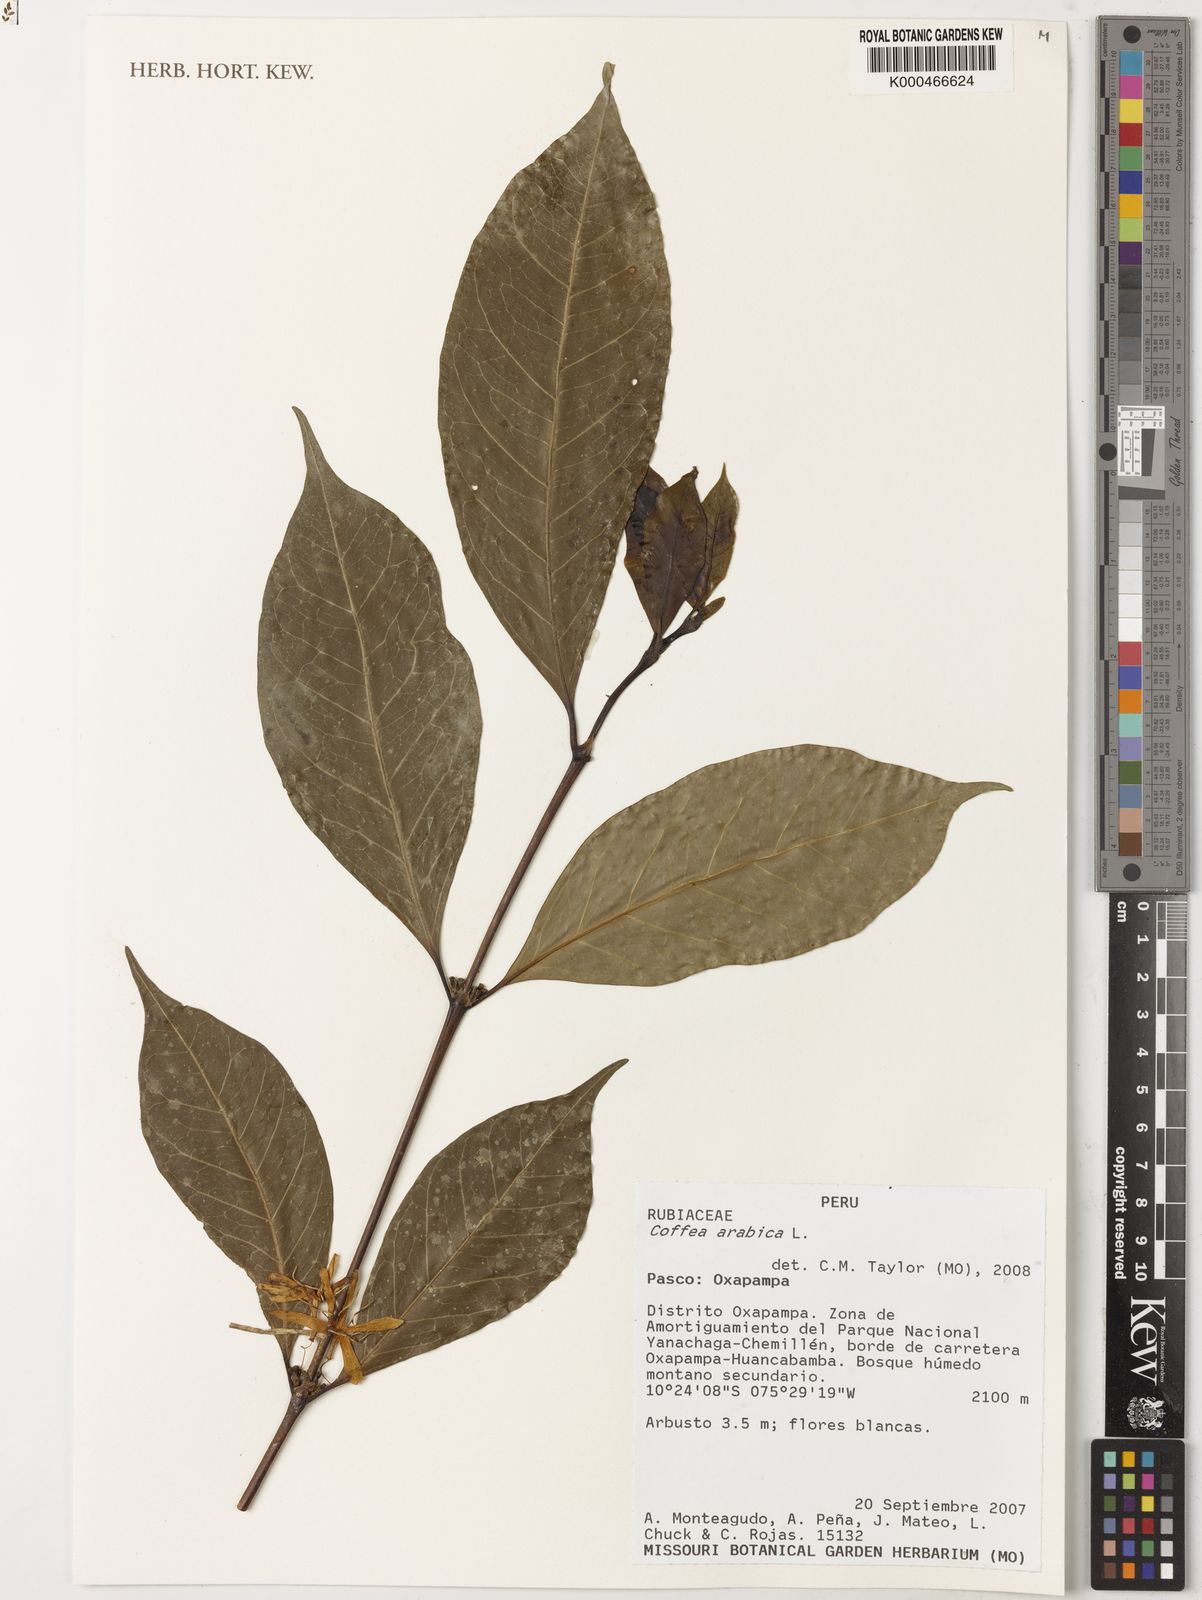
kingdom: Plantae
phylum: Tracheophyta
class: Magnoliopsida
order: Gentianales
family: Rubiaceae
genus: Coffea
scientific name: Coffea arabica
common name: Coffee
